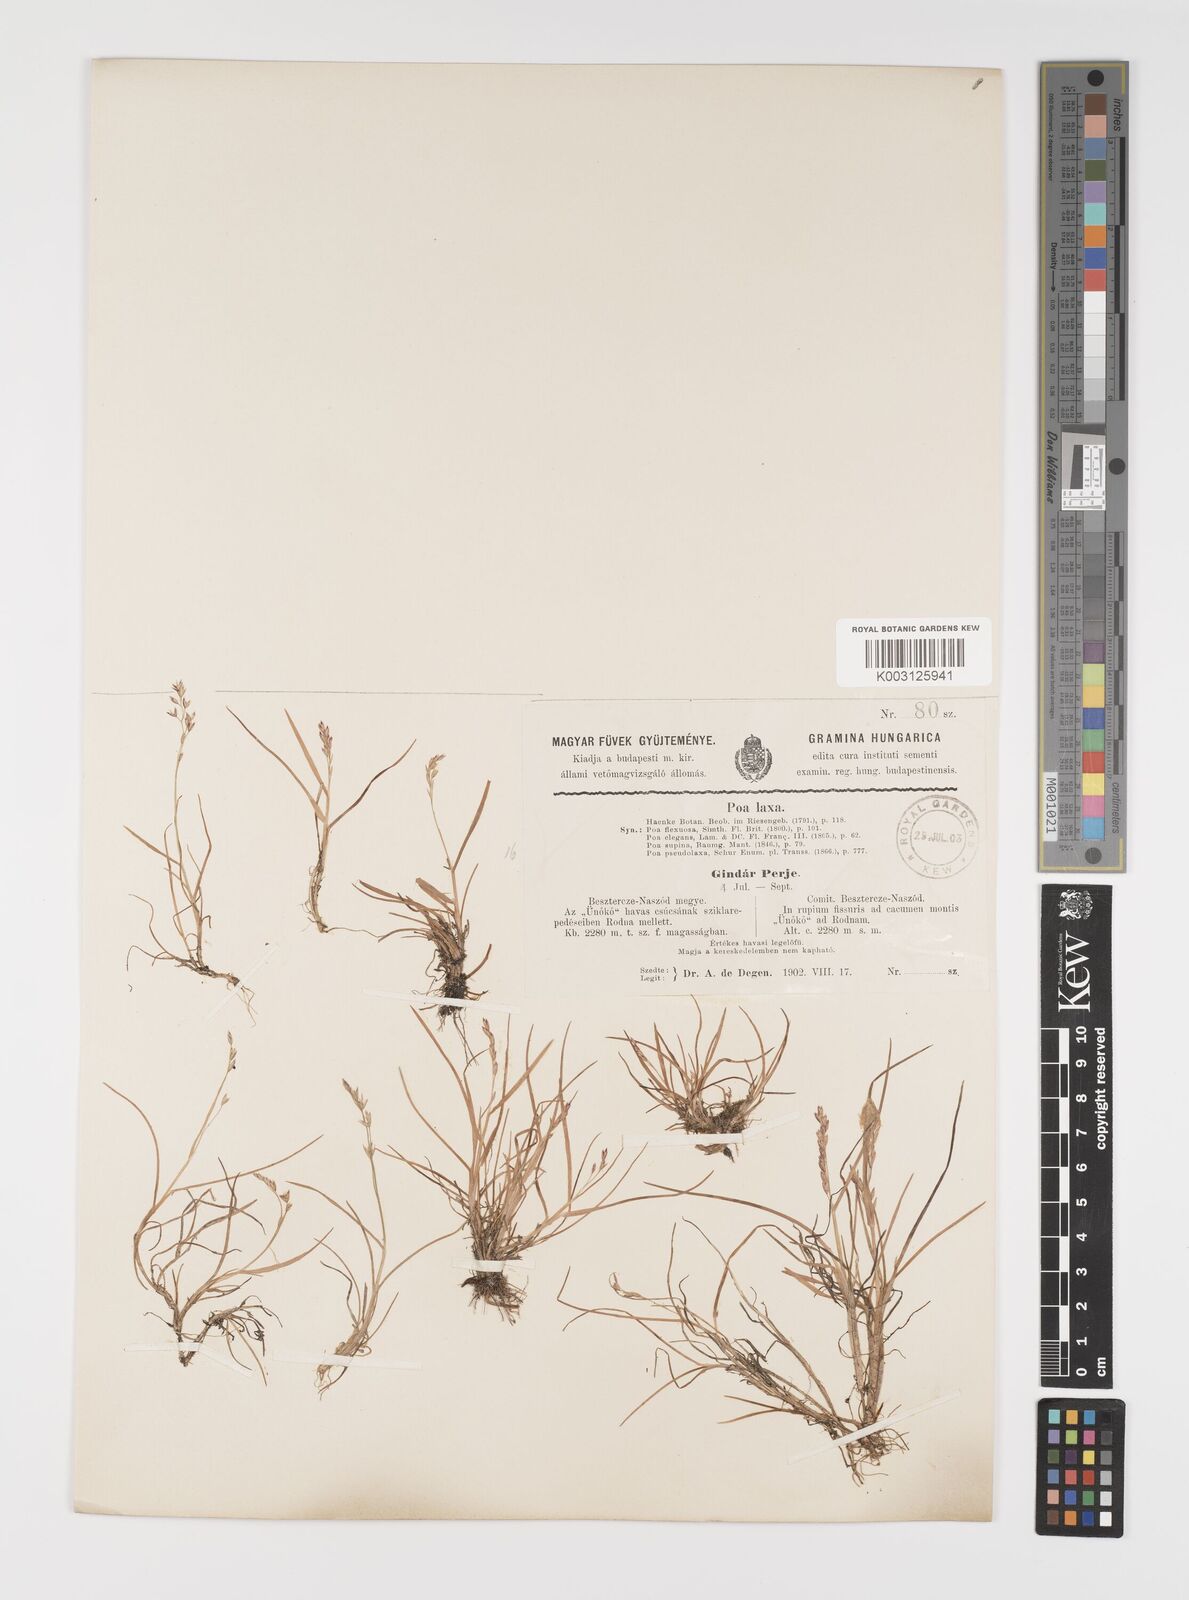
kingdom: Plantae
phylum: Tracheophyta
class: Liliopsida
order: Poales
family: Poaceae
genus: Poa
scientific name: Poa laxa
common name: Lax bluegrass
